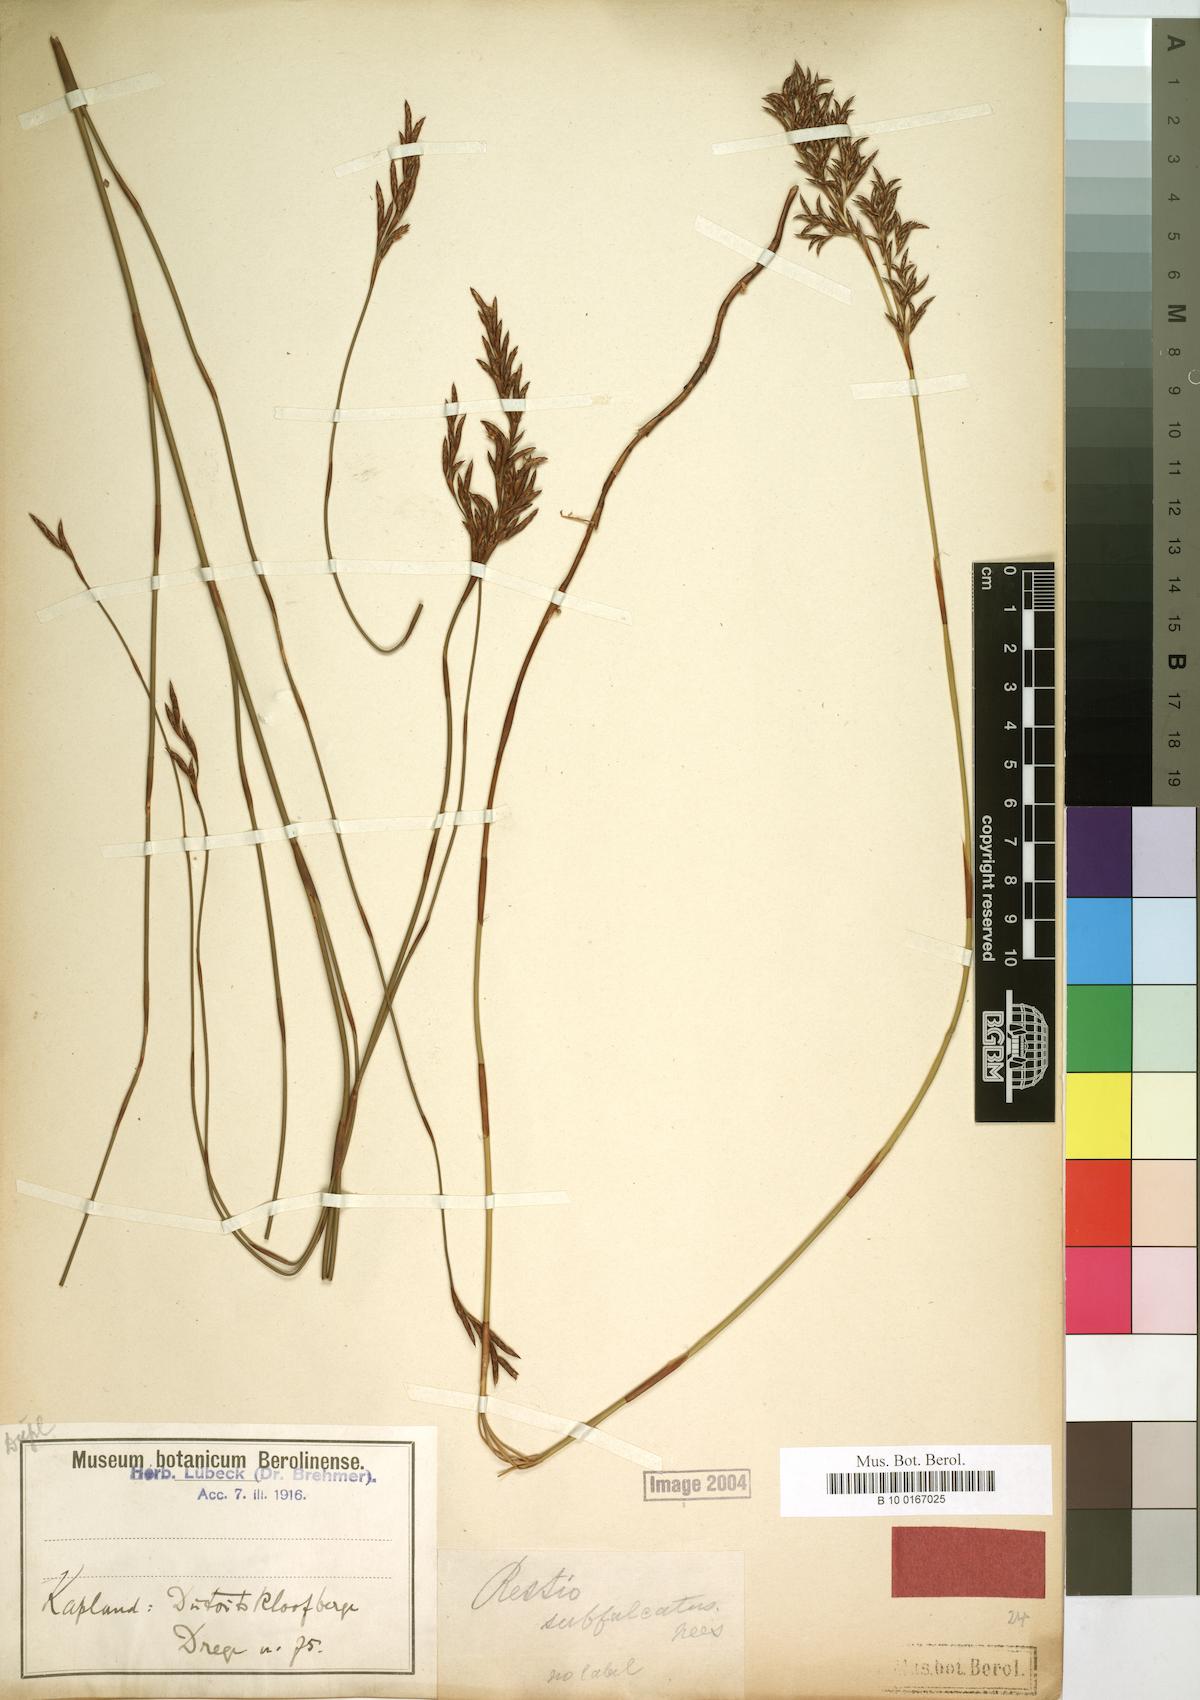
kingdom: Plantae
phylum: Tracheophyta
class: Liliopsida
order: Poales
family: Restionaceae
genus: Restio
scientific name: Restio sieberi
